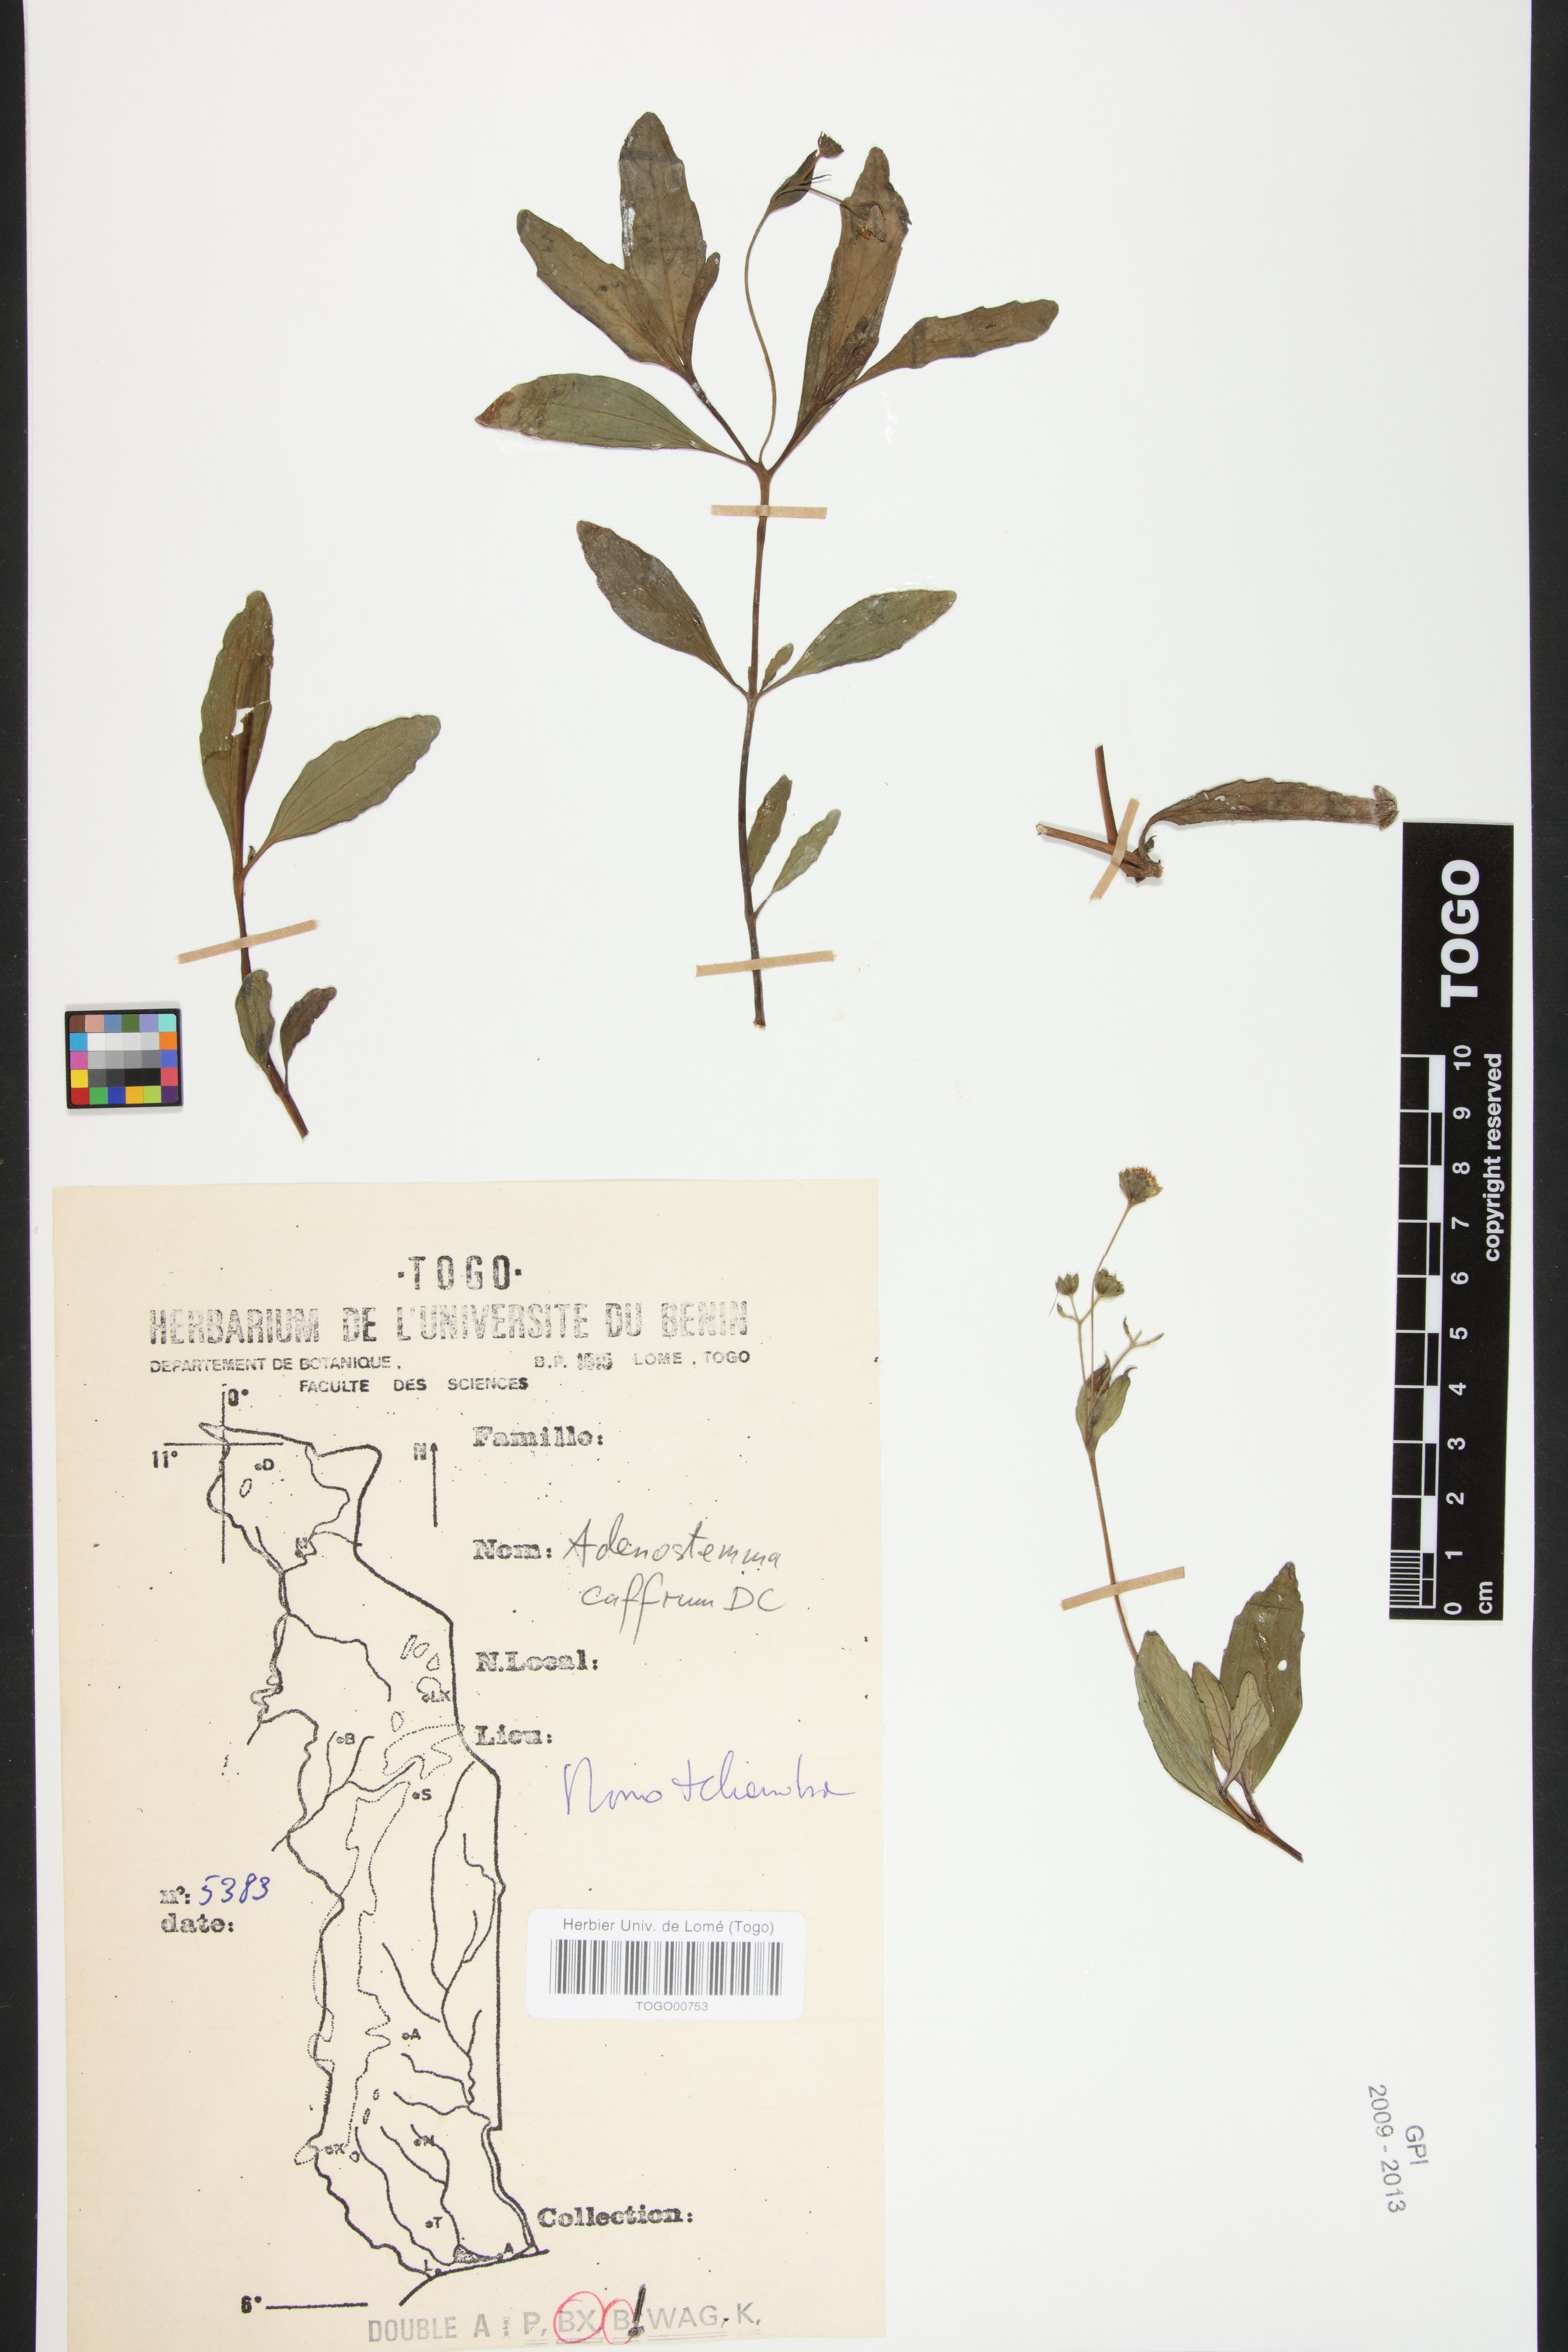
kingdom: Plantae
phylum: Tracheophyta
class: Magnoliopsida
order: Asterales
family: Asteraceae
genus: Adenostemma
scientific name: Adenostemma caffrum
